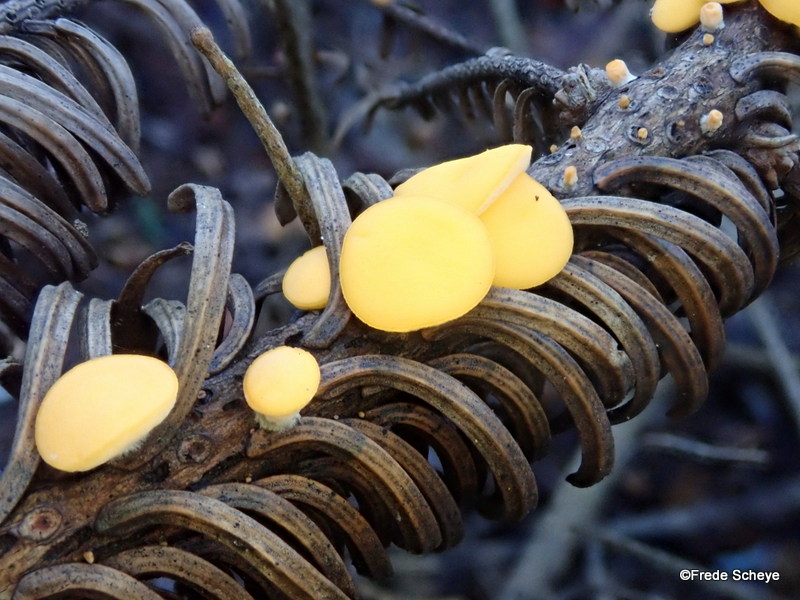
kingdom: Fungi
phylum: Ascomycota
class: Pezizomycetes
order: Pezizales
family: Sarcoscyphaceae
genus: Pithya
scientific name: Pithya vulgaris
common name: stor dukatbæger
